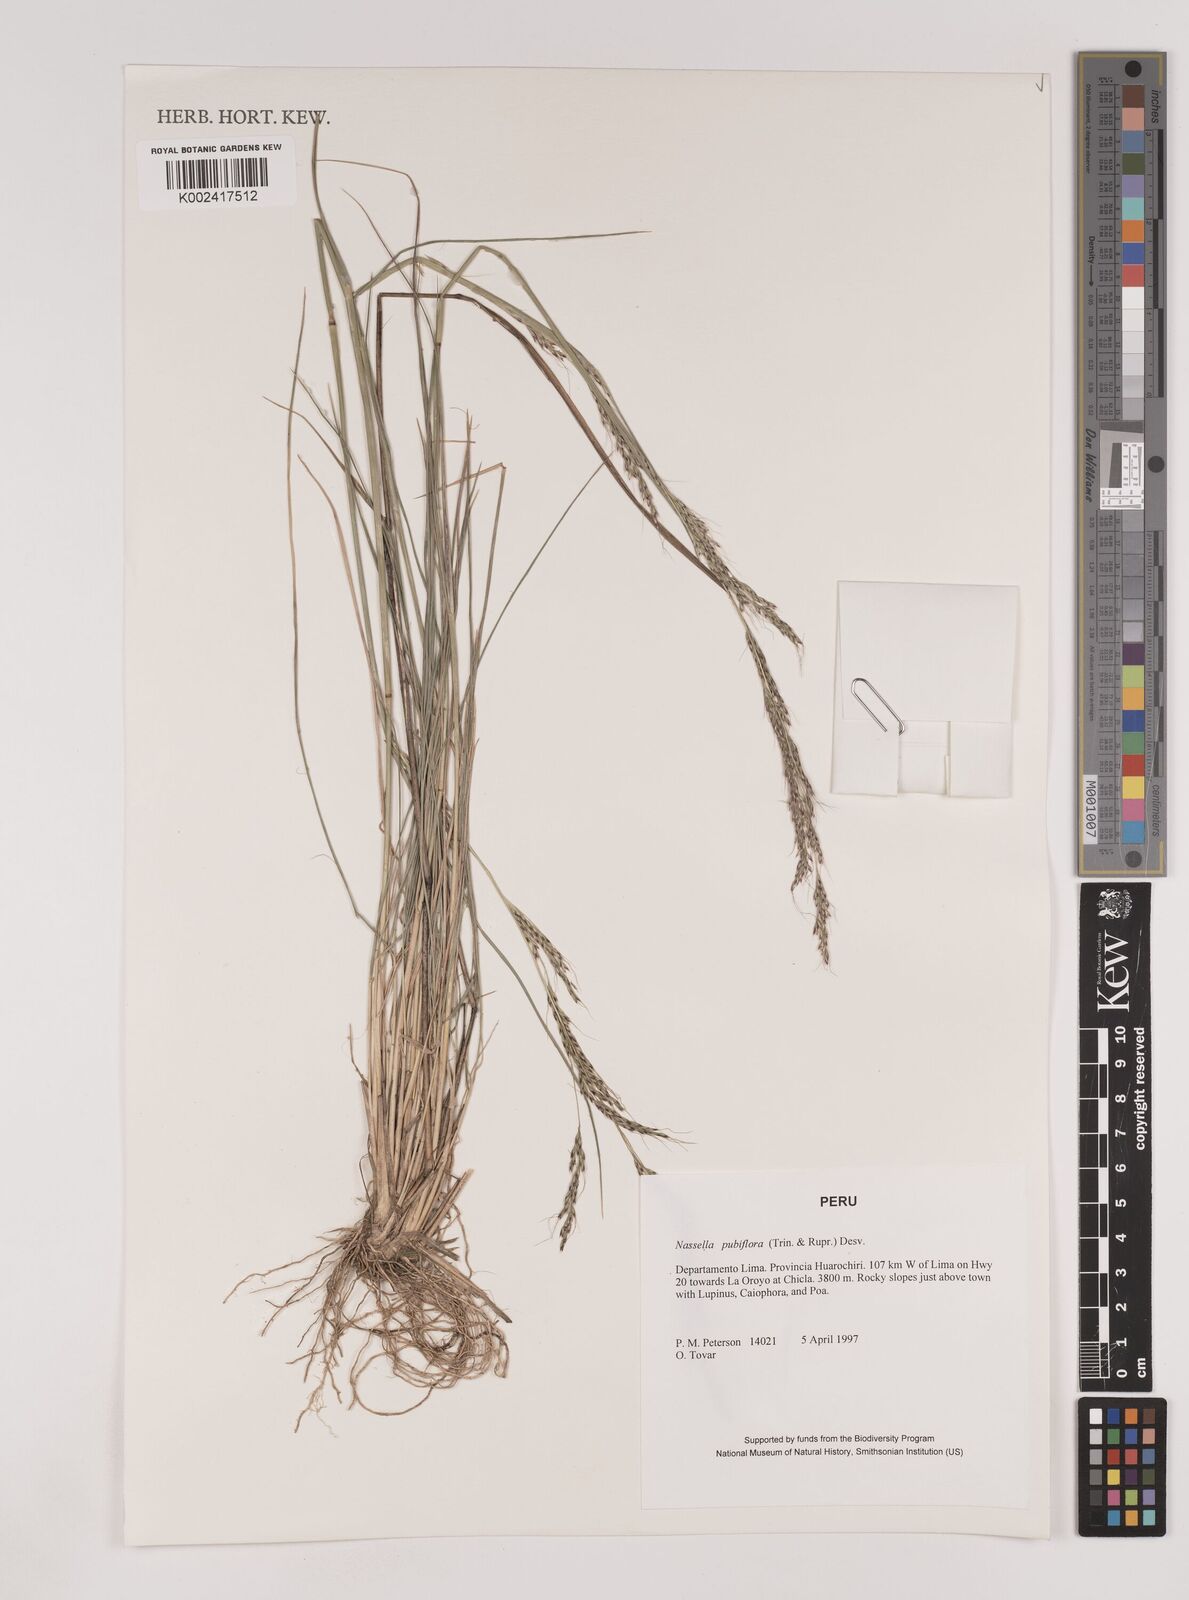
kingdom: Plantae
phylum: Tracheophyta
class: Liliopsida
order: Poales
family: Poaceae
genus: Nassella
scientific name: Nassella pubiflora
